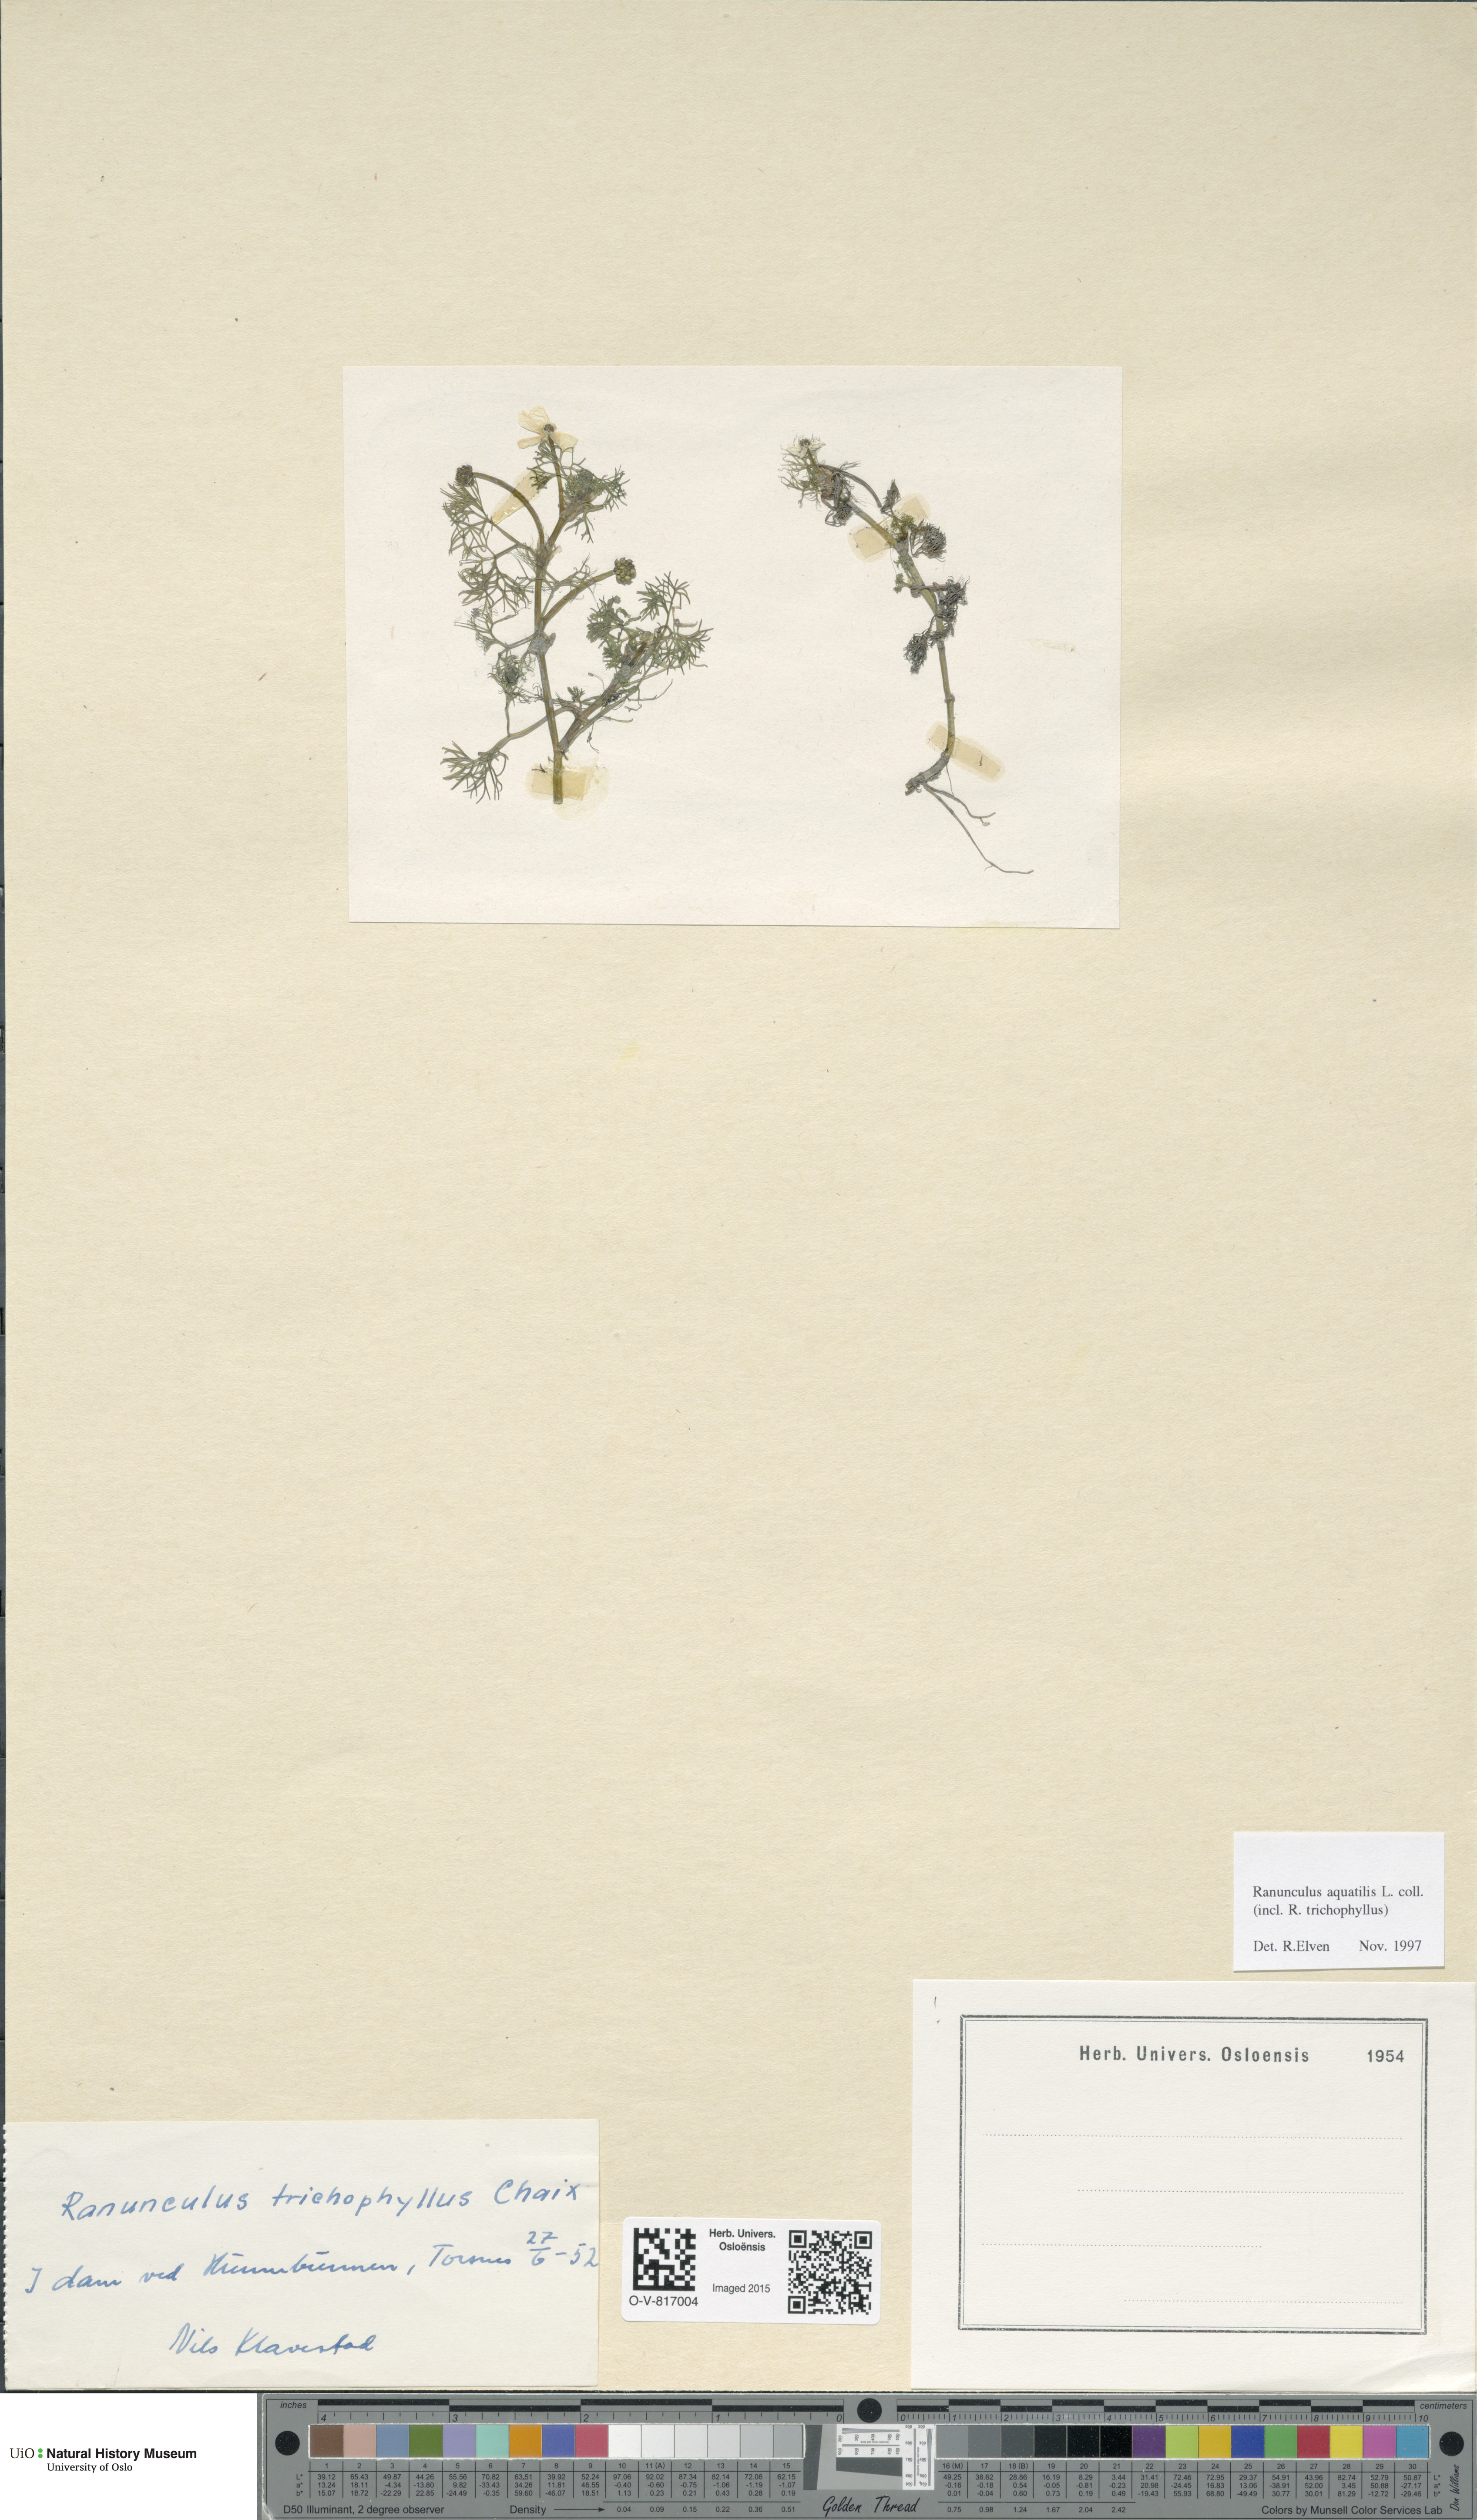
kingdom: Plantae
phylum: Tracheophyta
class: Magnoliopsida
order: Ranunculales
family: Ranunculaceae
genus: Ranunculus
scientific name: Ranunculus aquatilis
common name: Common water-crowfoot
